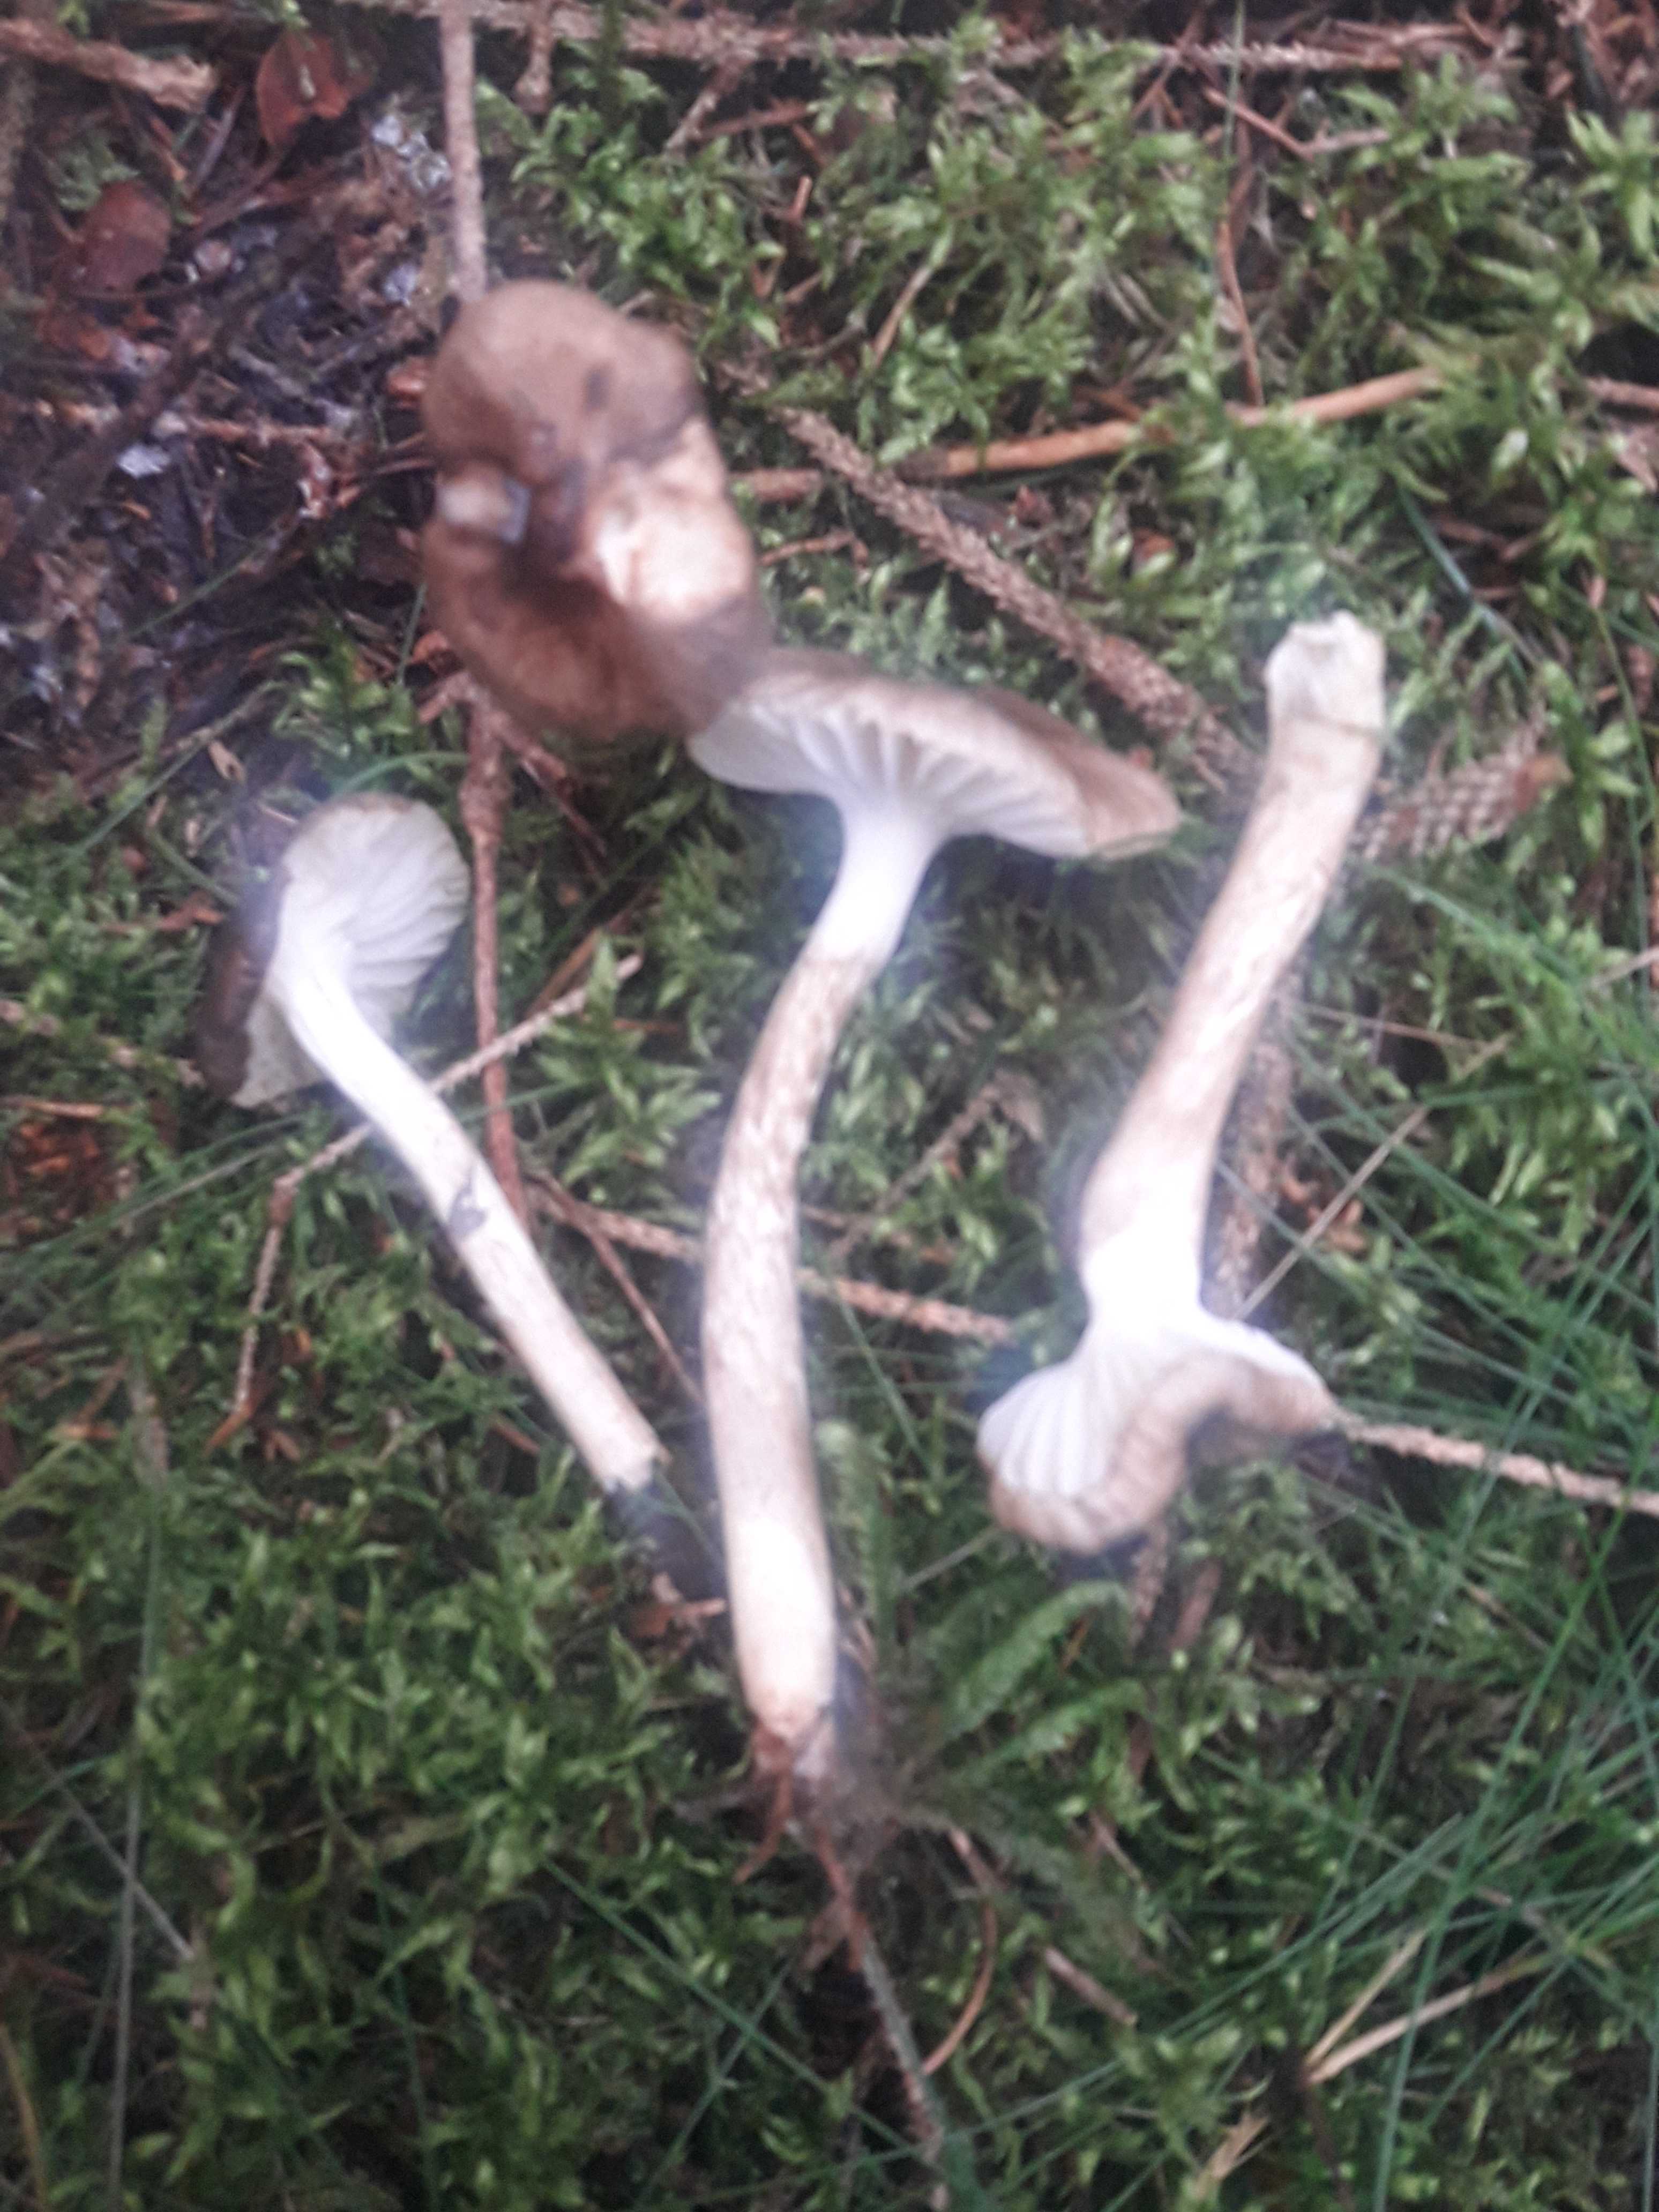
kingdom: Fungi
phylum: Basidiomycota
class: Agaricomycetes
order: Agaricales
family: Hygrophoraceae
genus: Hygrophorus
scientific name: Hygrophorus olivaceoalbus
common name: hvidbrun sneglehat
